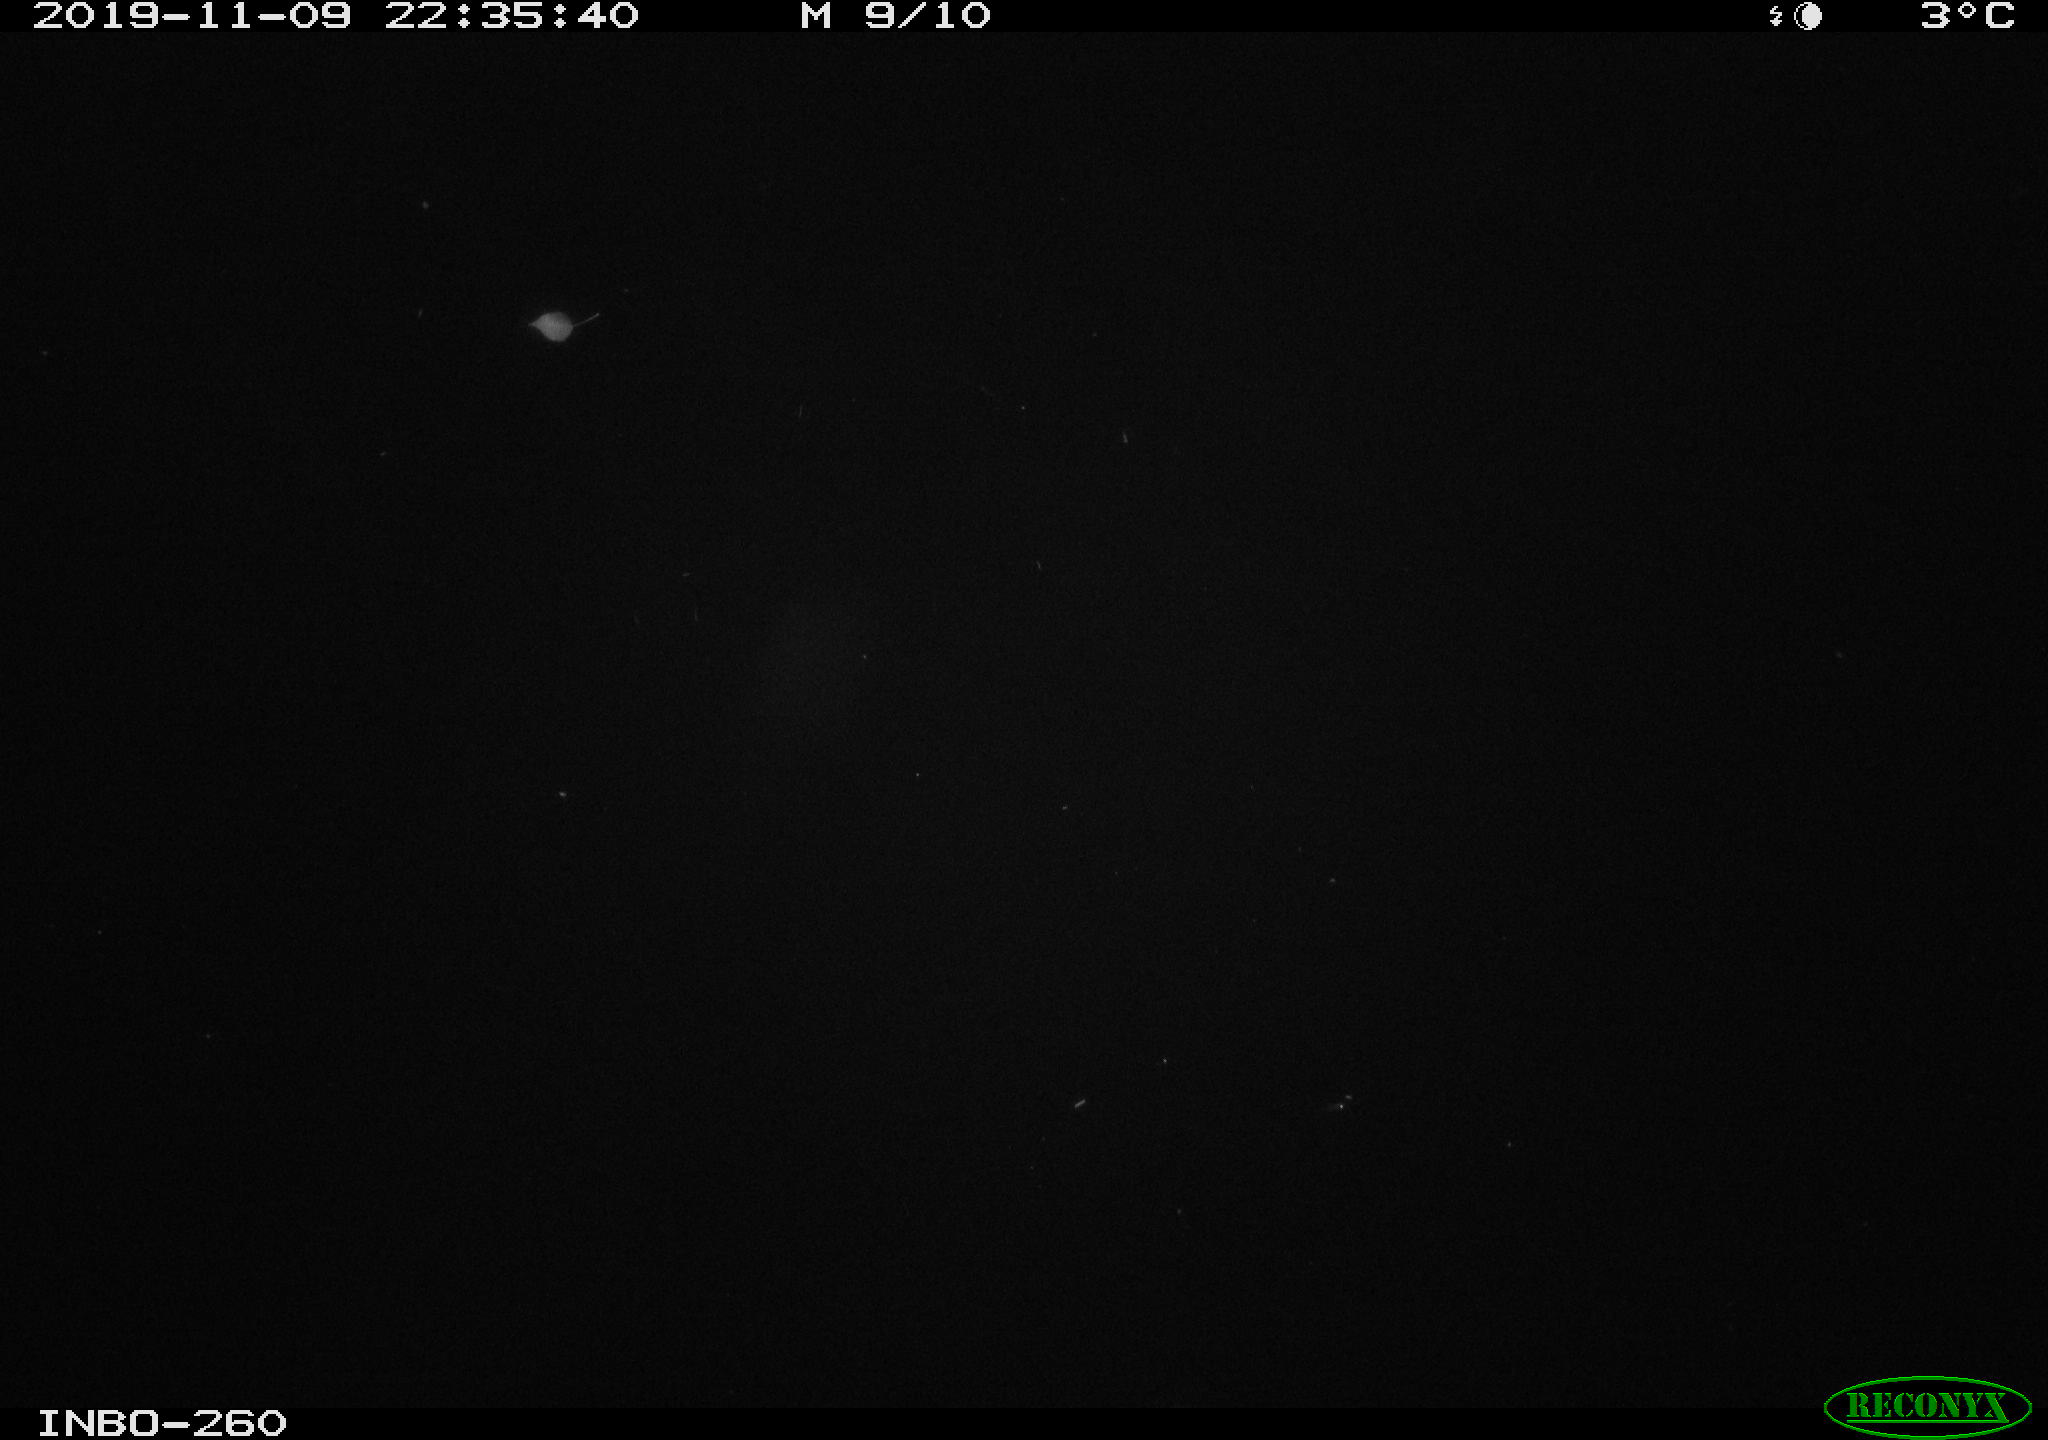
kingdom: Animalia
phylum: Chordata
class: Aves
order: Anseriformes
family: Anatidae
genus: Anas
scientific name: Anas platyrhynchos
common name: Mallard
